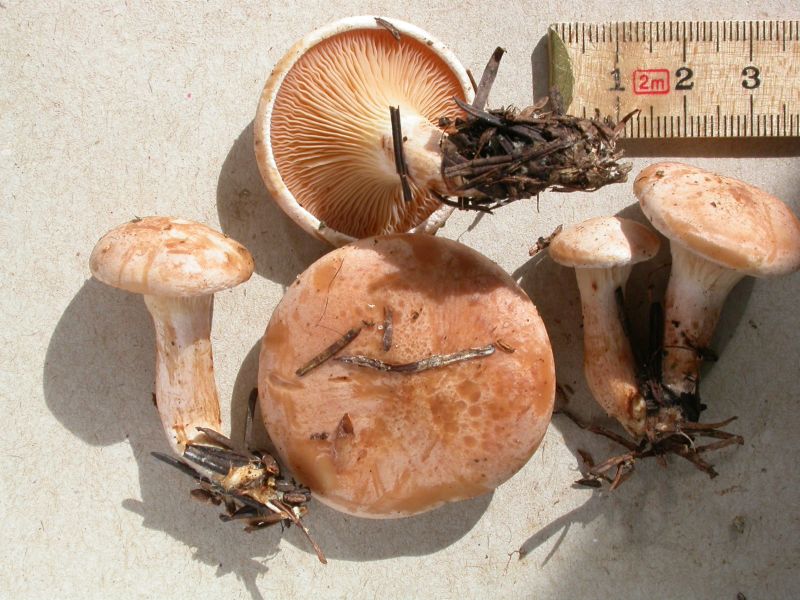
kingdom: Fungi
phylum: Basidiomycota
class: Agaricomycetes
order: Agaricales
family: Tricholomataceae
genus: Paralepista
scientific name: Paralepista gilva
